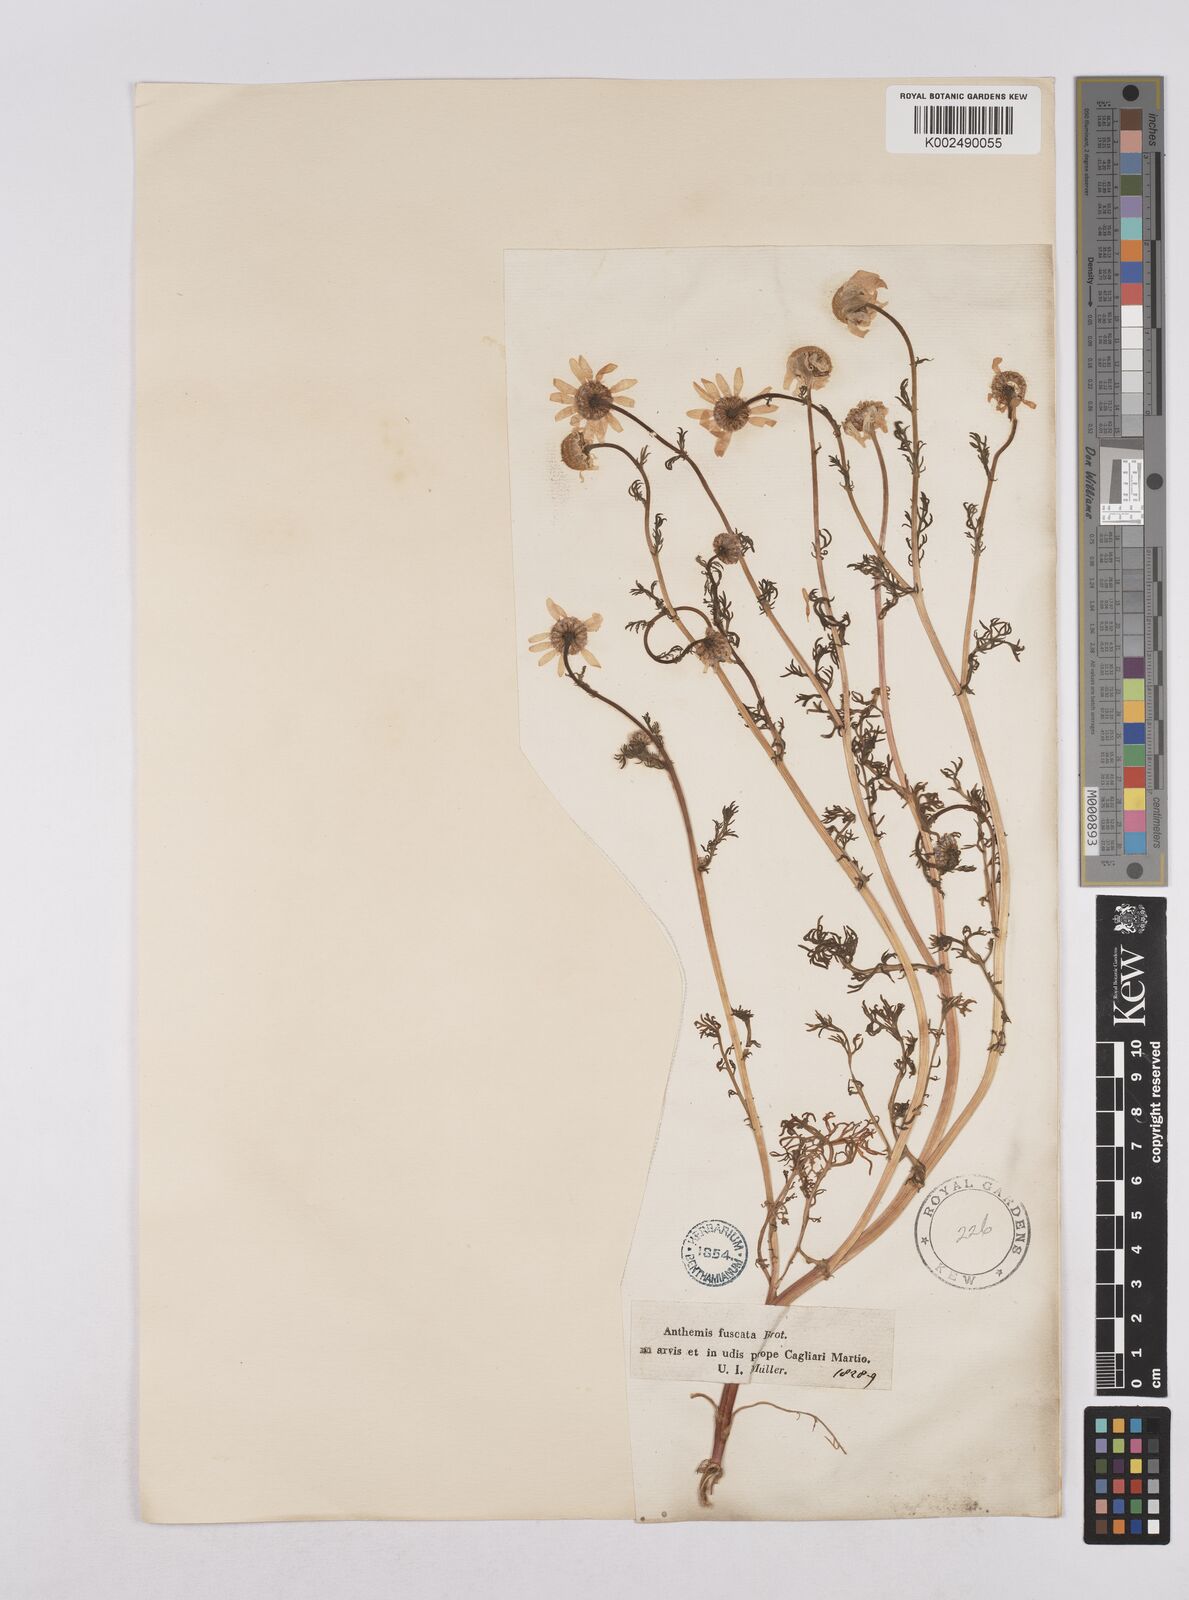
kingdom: Plantae
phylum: Tracheophyta
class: Magnoliopsida
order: Asterales
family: Asteraceae
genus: Chamaemelum
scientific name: Chamaemelum fuscatum
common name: Chamomile
